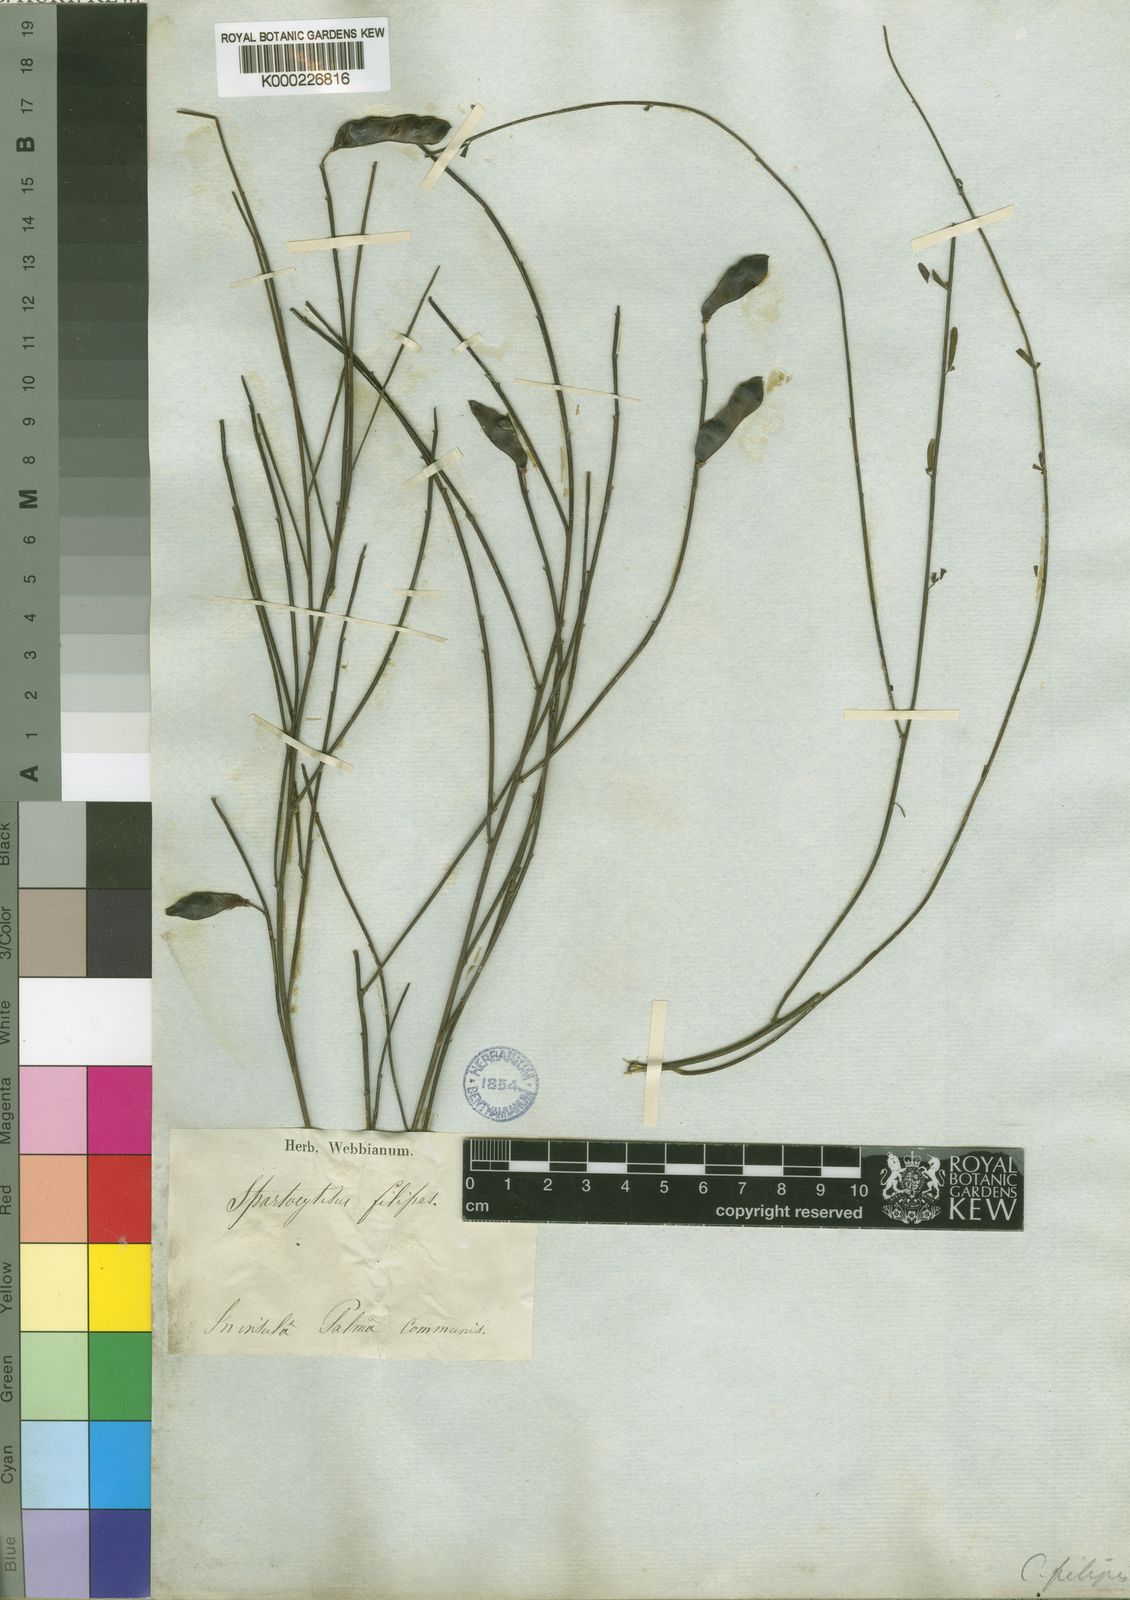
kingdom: Plantae
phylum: Tracheophyta
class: Magnoliopsida
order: Fabales
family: Fabaceae
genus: Cytisus
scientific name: Cytisus filipes
